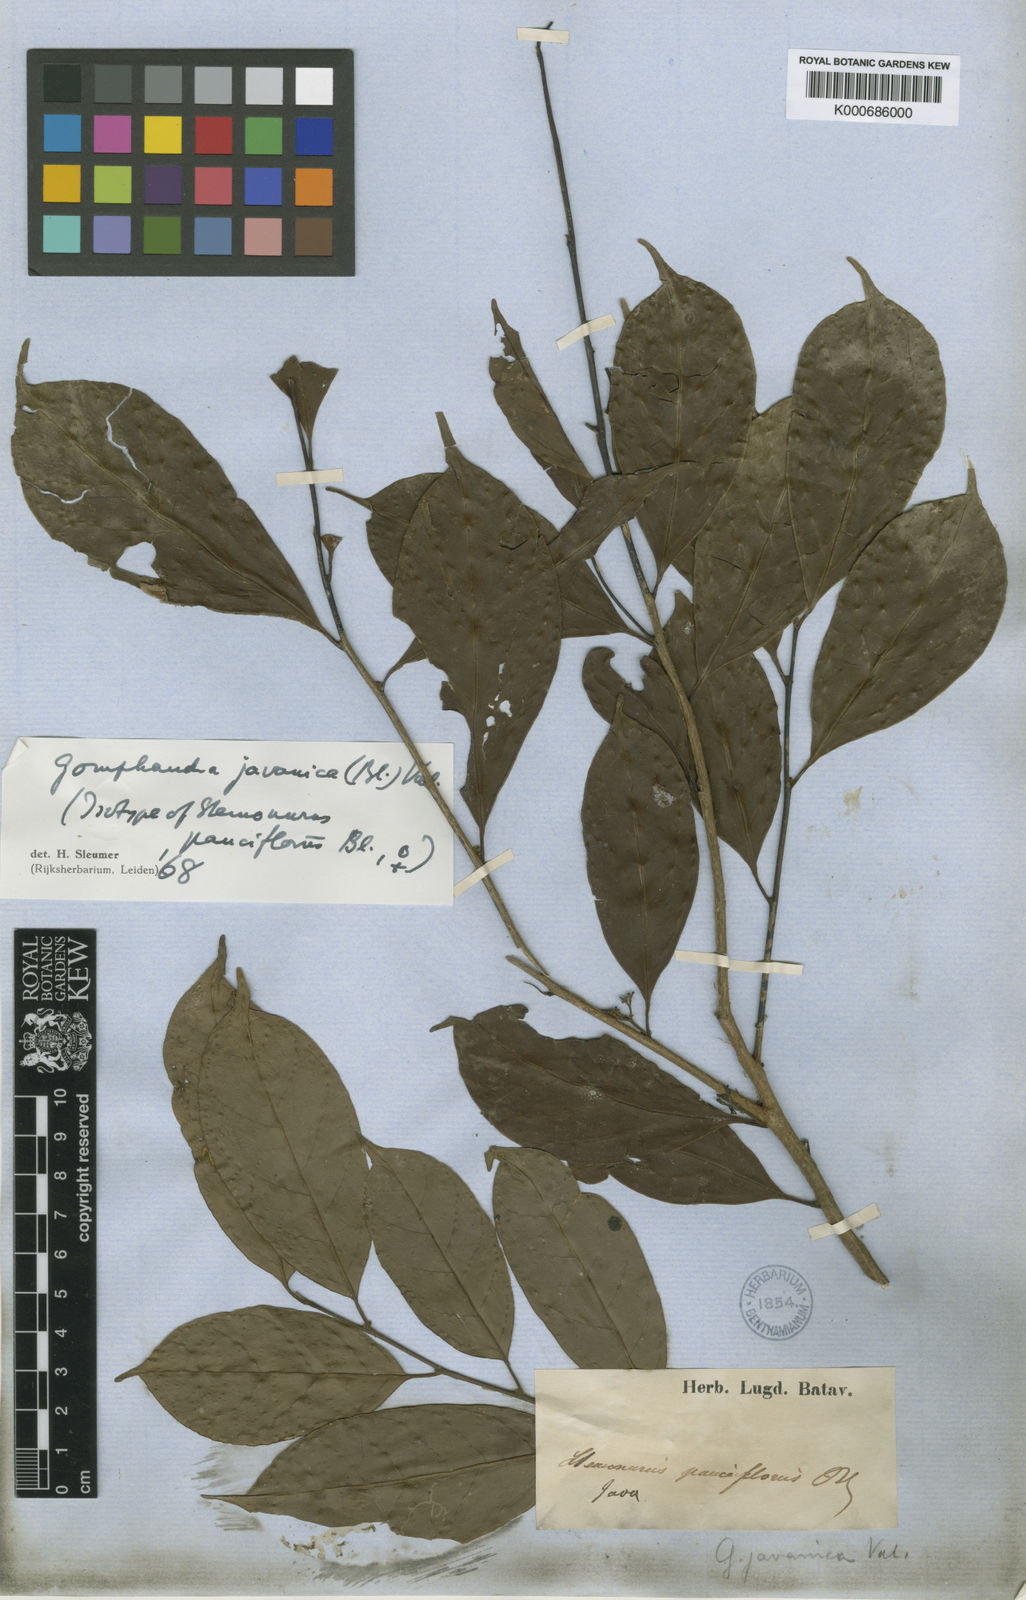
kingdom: Plantae
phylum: Tracheophyta
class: Magnoliopsida
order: Cardiopteridales
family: Stemonuraceae
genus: Gomphandra
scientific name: Gomphandra javanica
